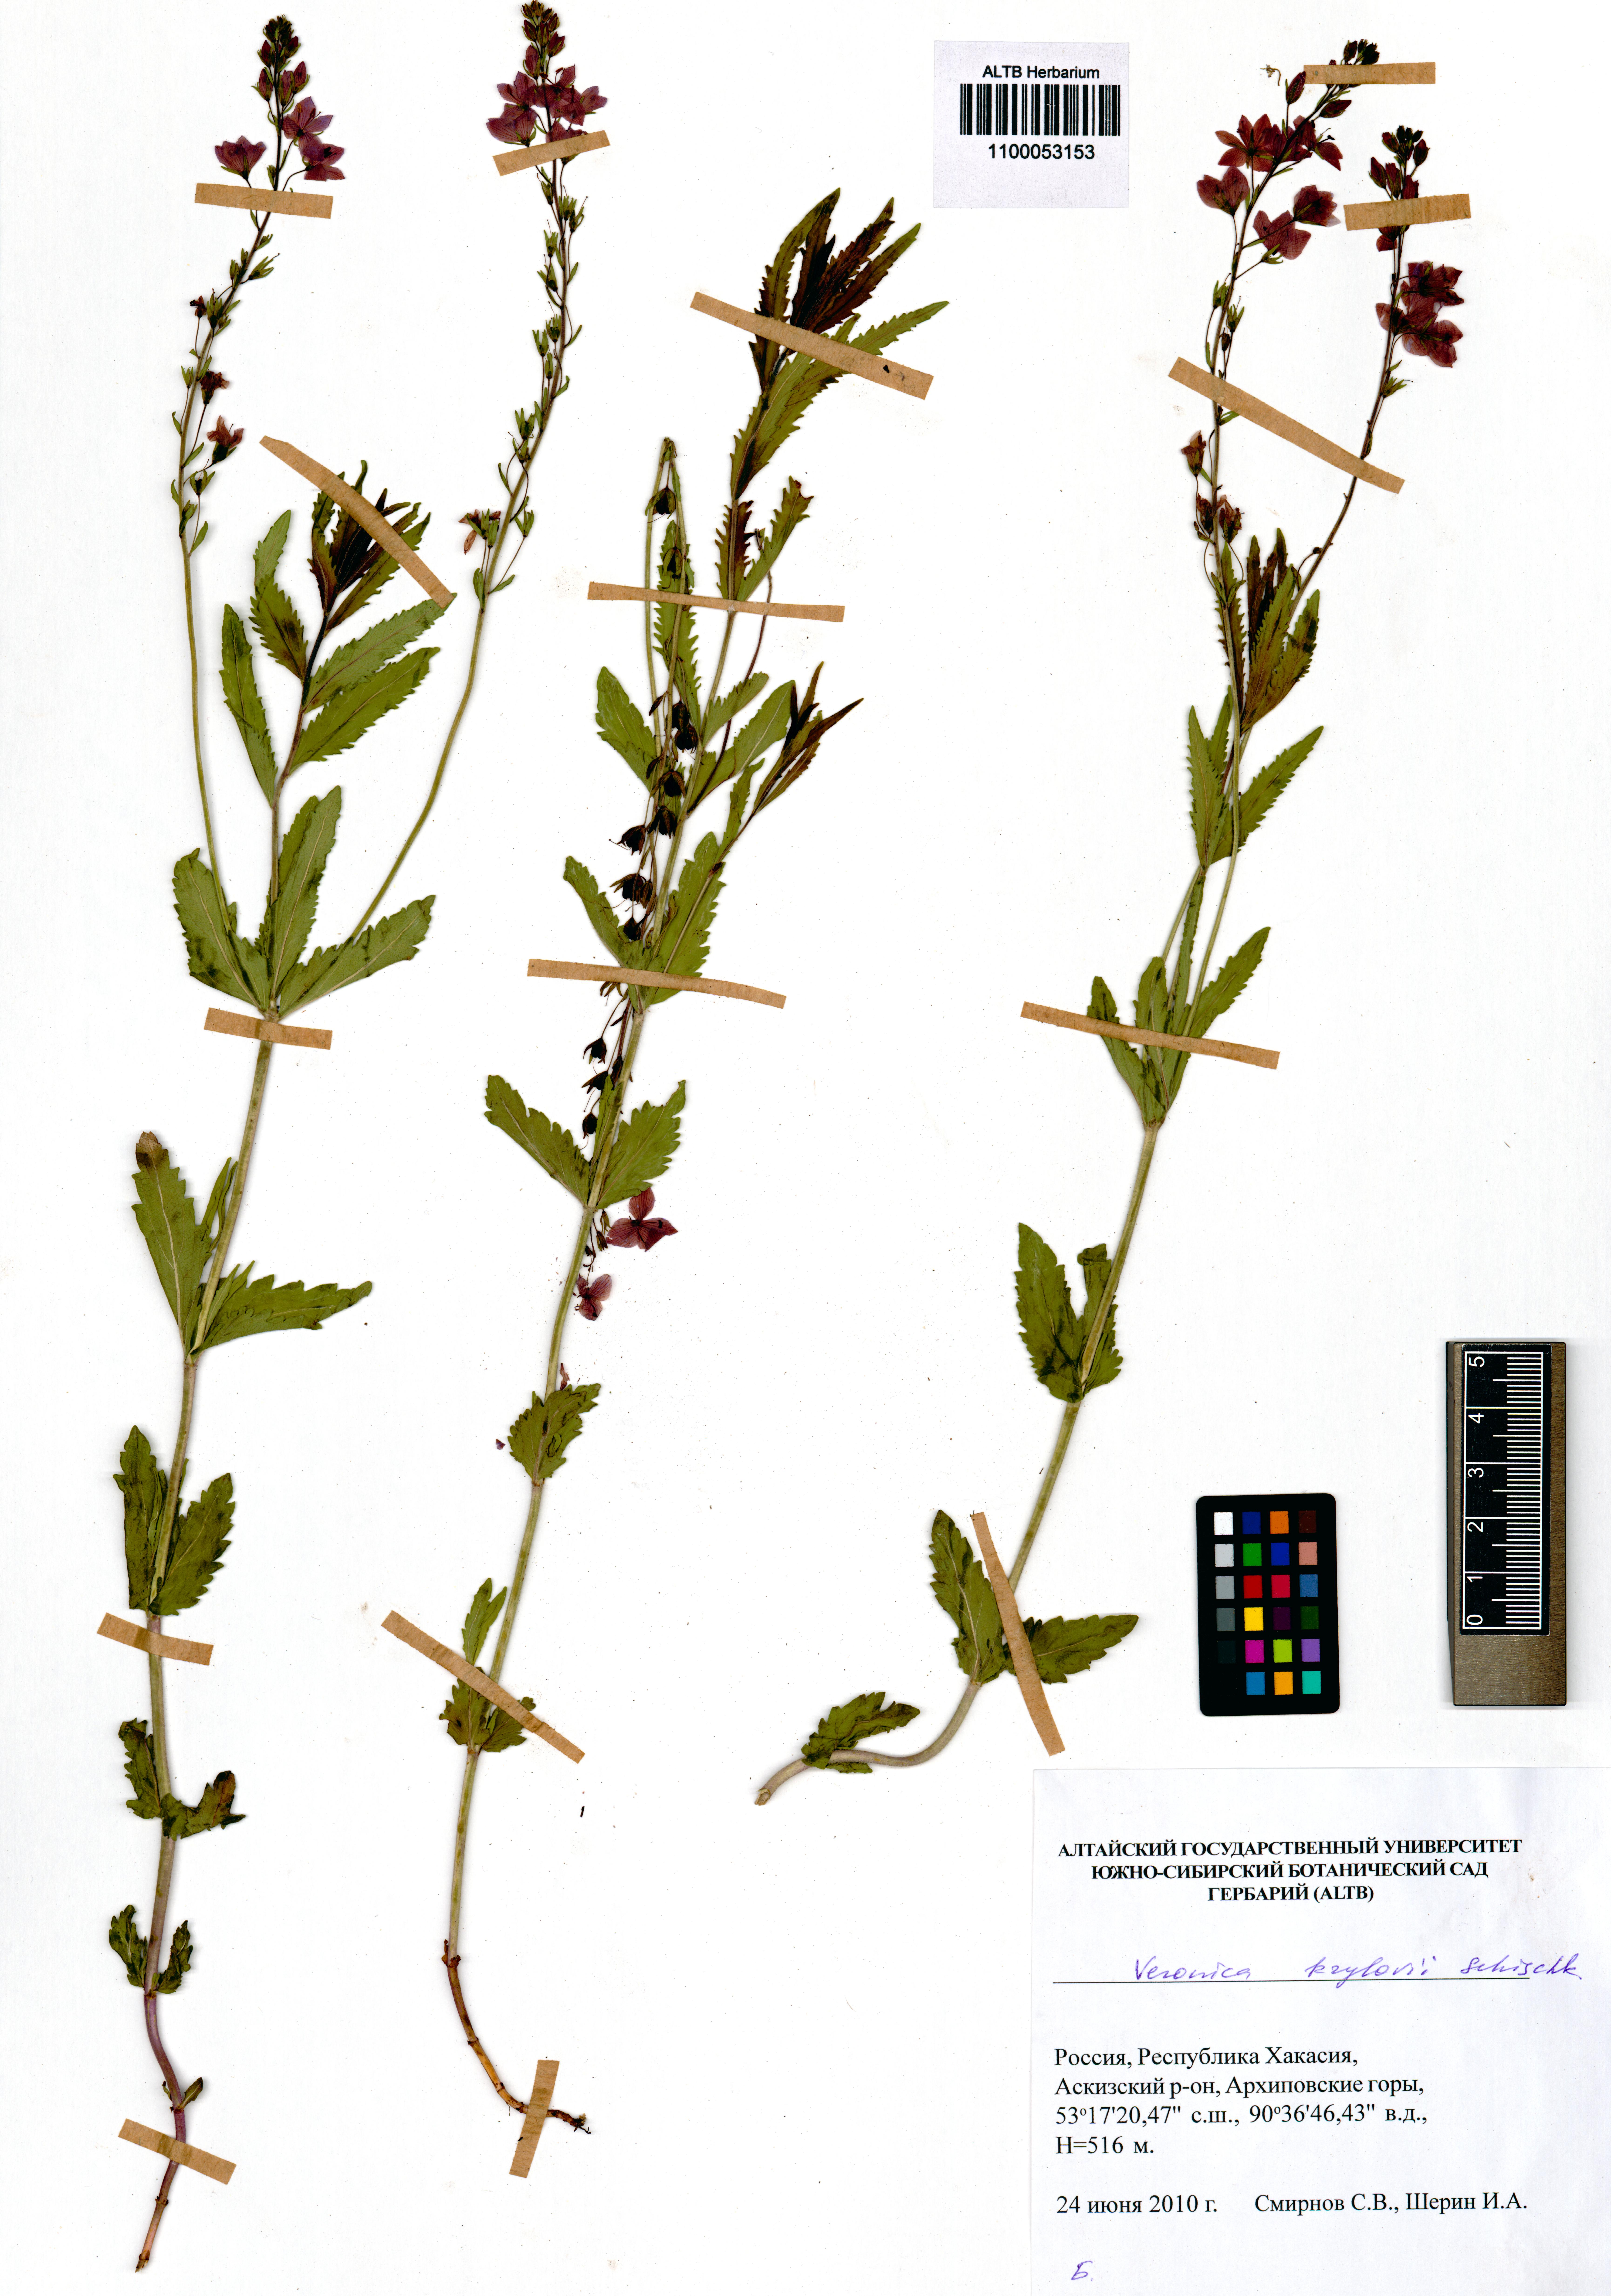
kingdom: Plantae
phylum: Tracheophyta
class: Magnoliopsida
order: Lamiales
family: Plantaginaceae
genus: Veronica
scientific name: Veronica krylovii
